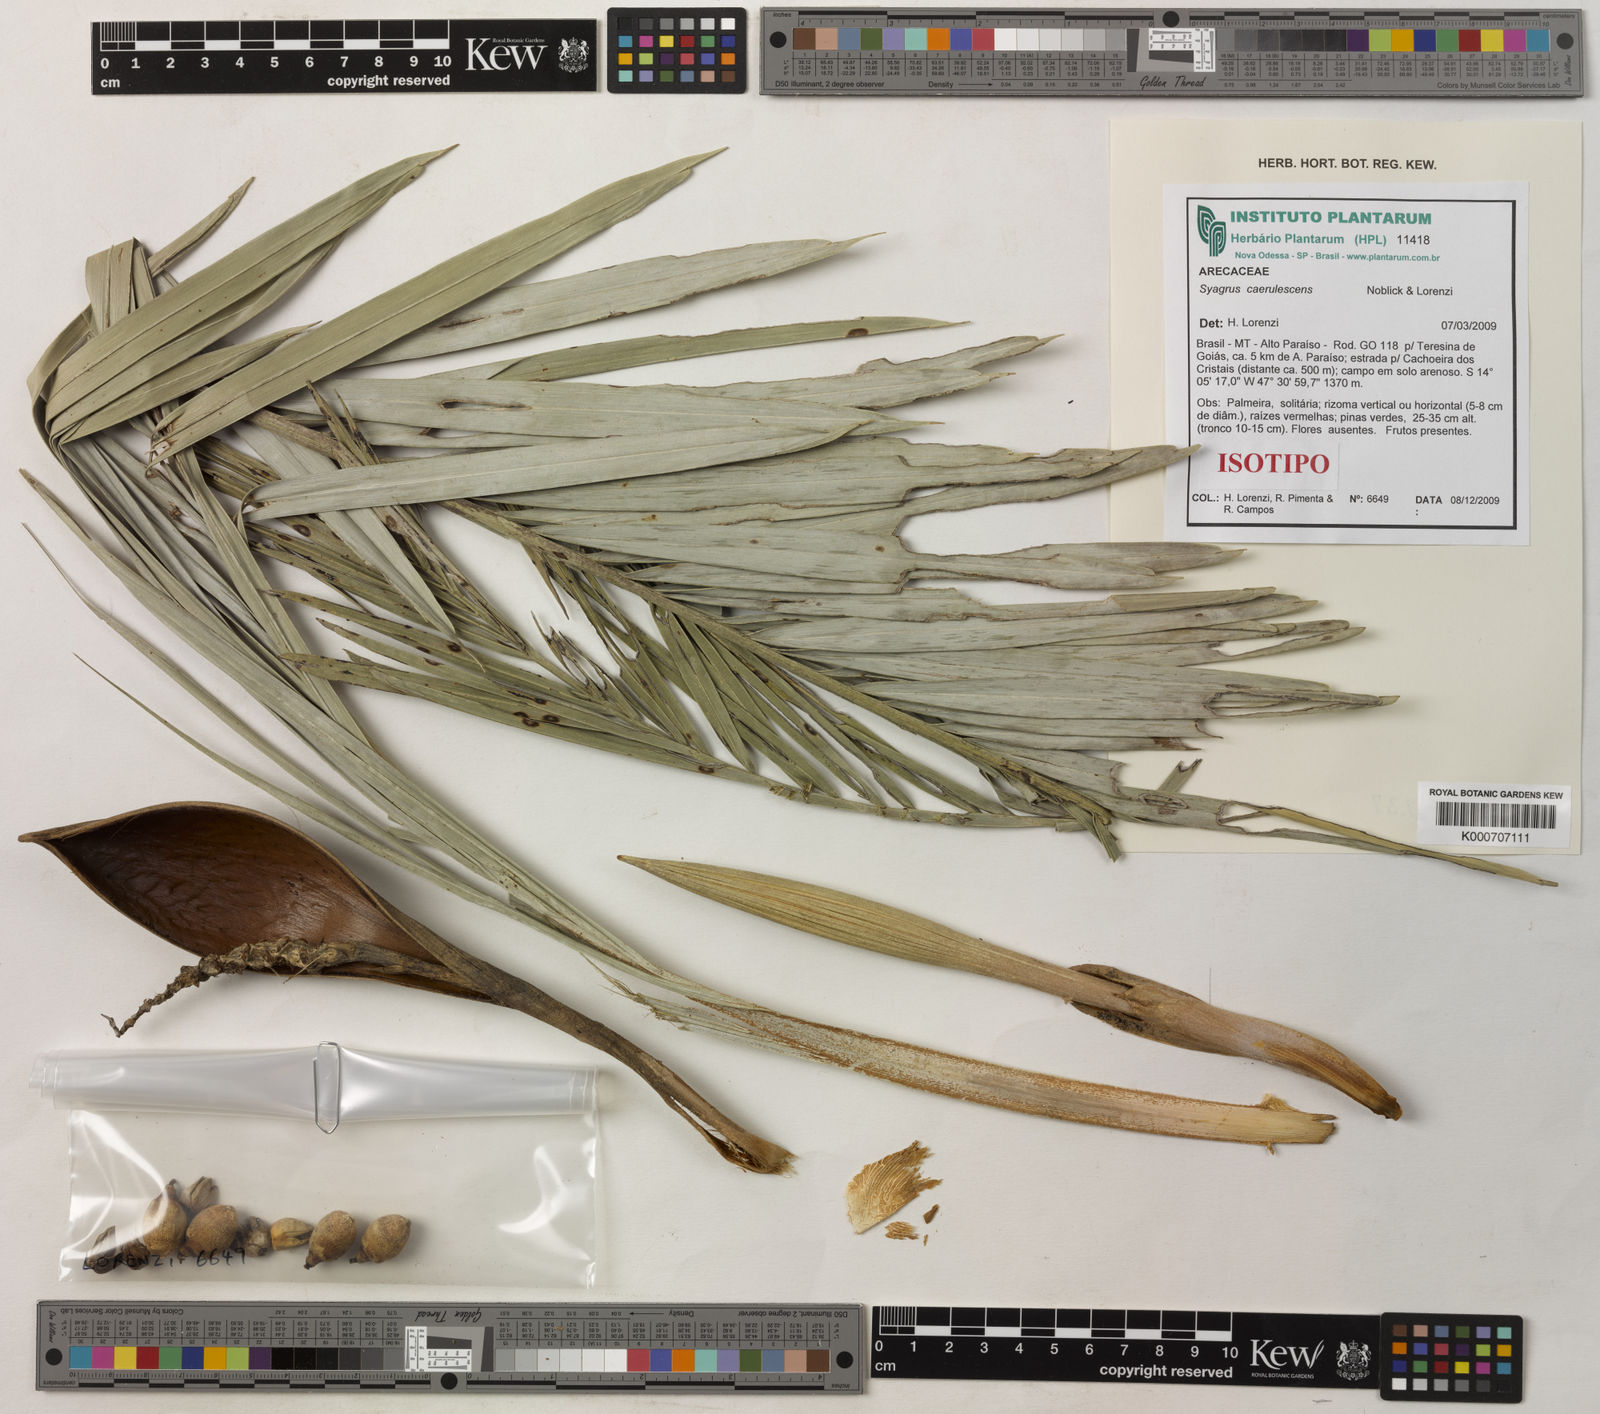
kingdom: Plantae
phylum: Tracheophyta
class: Liliopsida
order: Arecales
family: Arecaceae
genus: Syagrus
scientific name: Syagrus caerulescens
